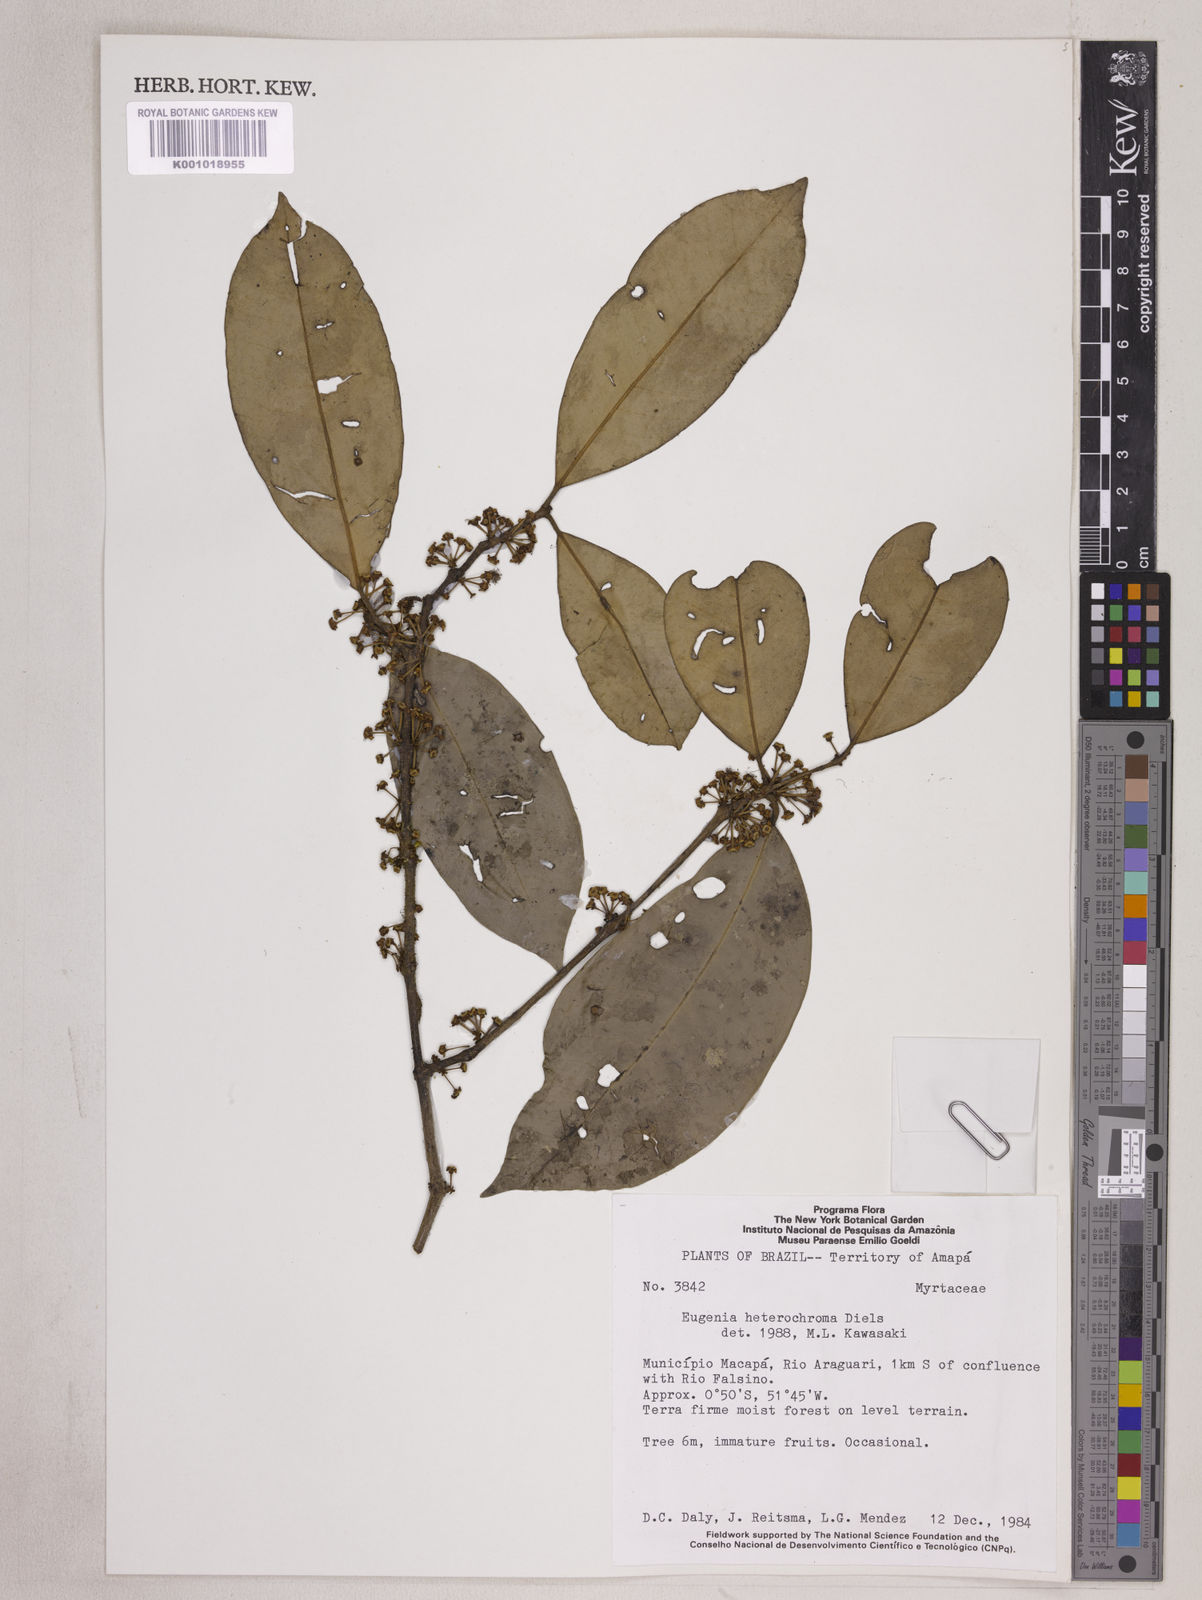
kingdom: Plantae
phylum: Tracheophyta
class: Magnoliopsida
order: Myrtales
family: Myrtaceae
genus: Eugenia
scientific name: Eugenia heterochroma
